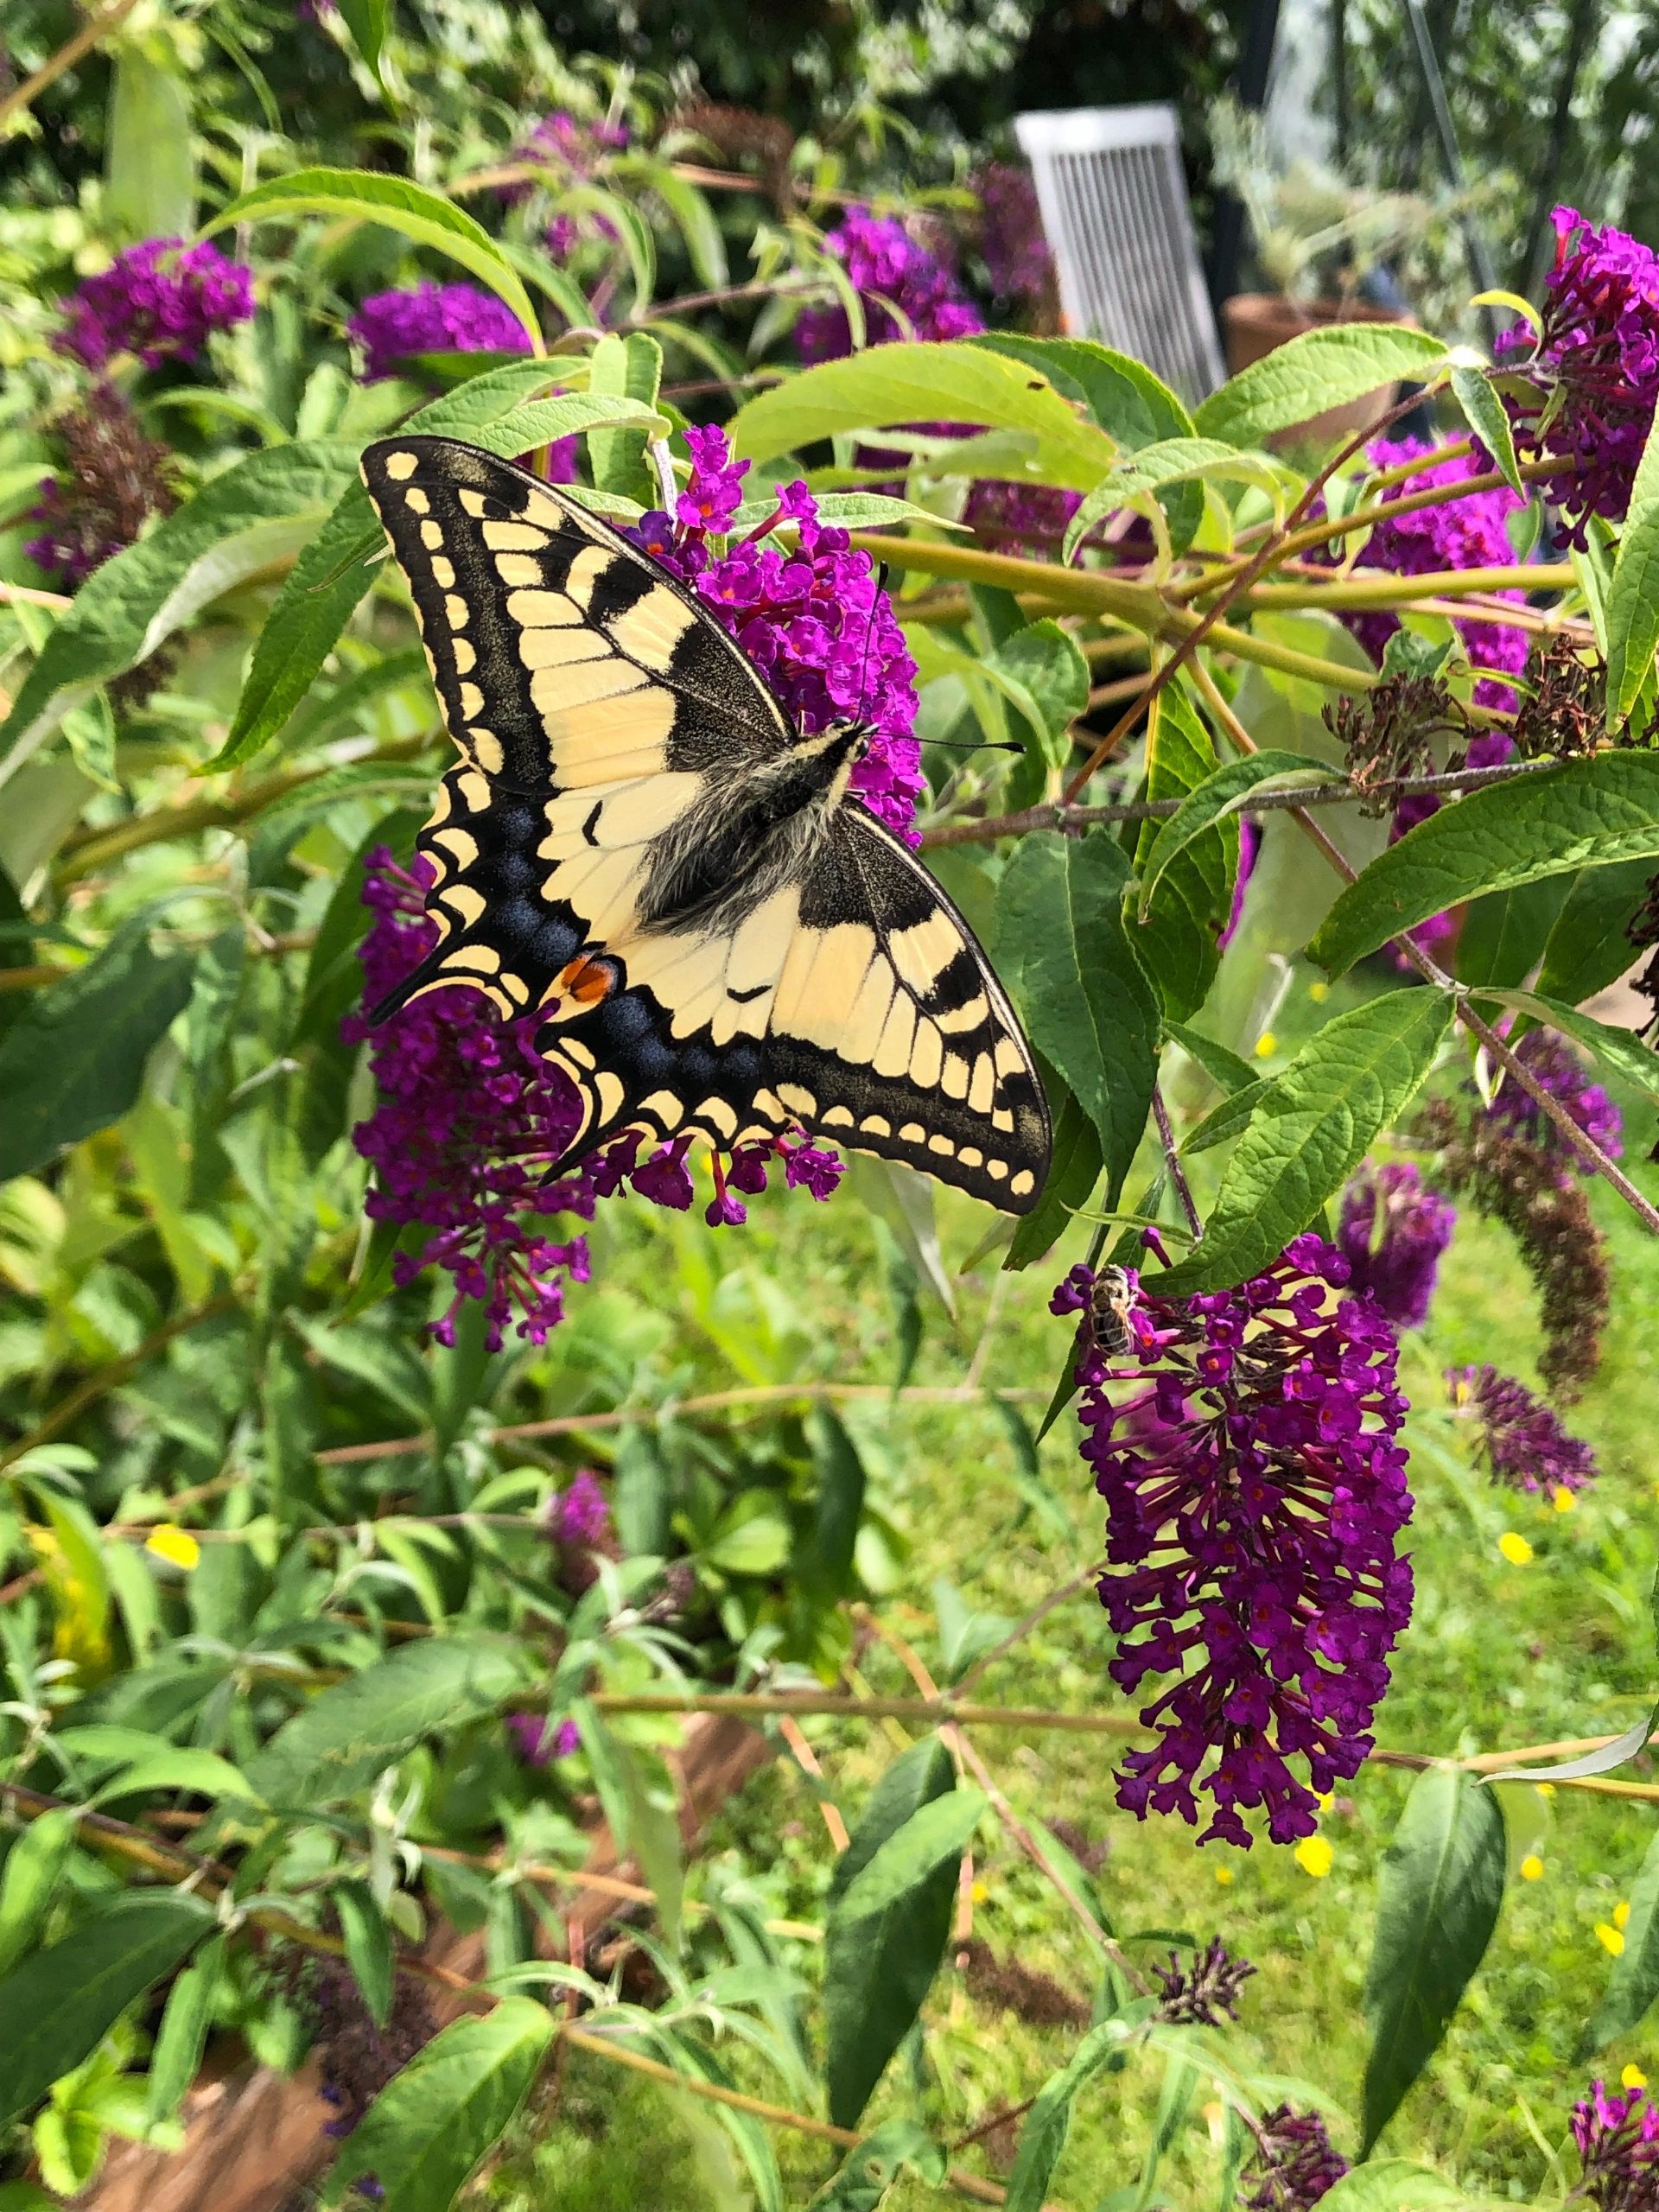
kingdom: Animalia
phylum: Arthropoda
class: Insecta
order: Lepidoptera
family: Papilionidae
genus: Papilio
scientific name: Papilio machaon
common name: Svalehale
